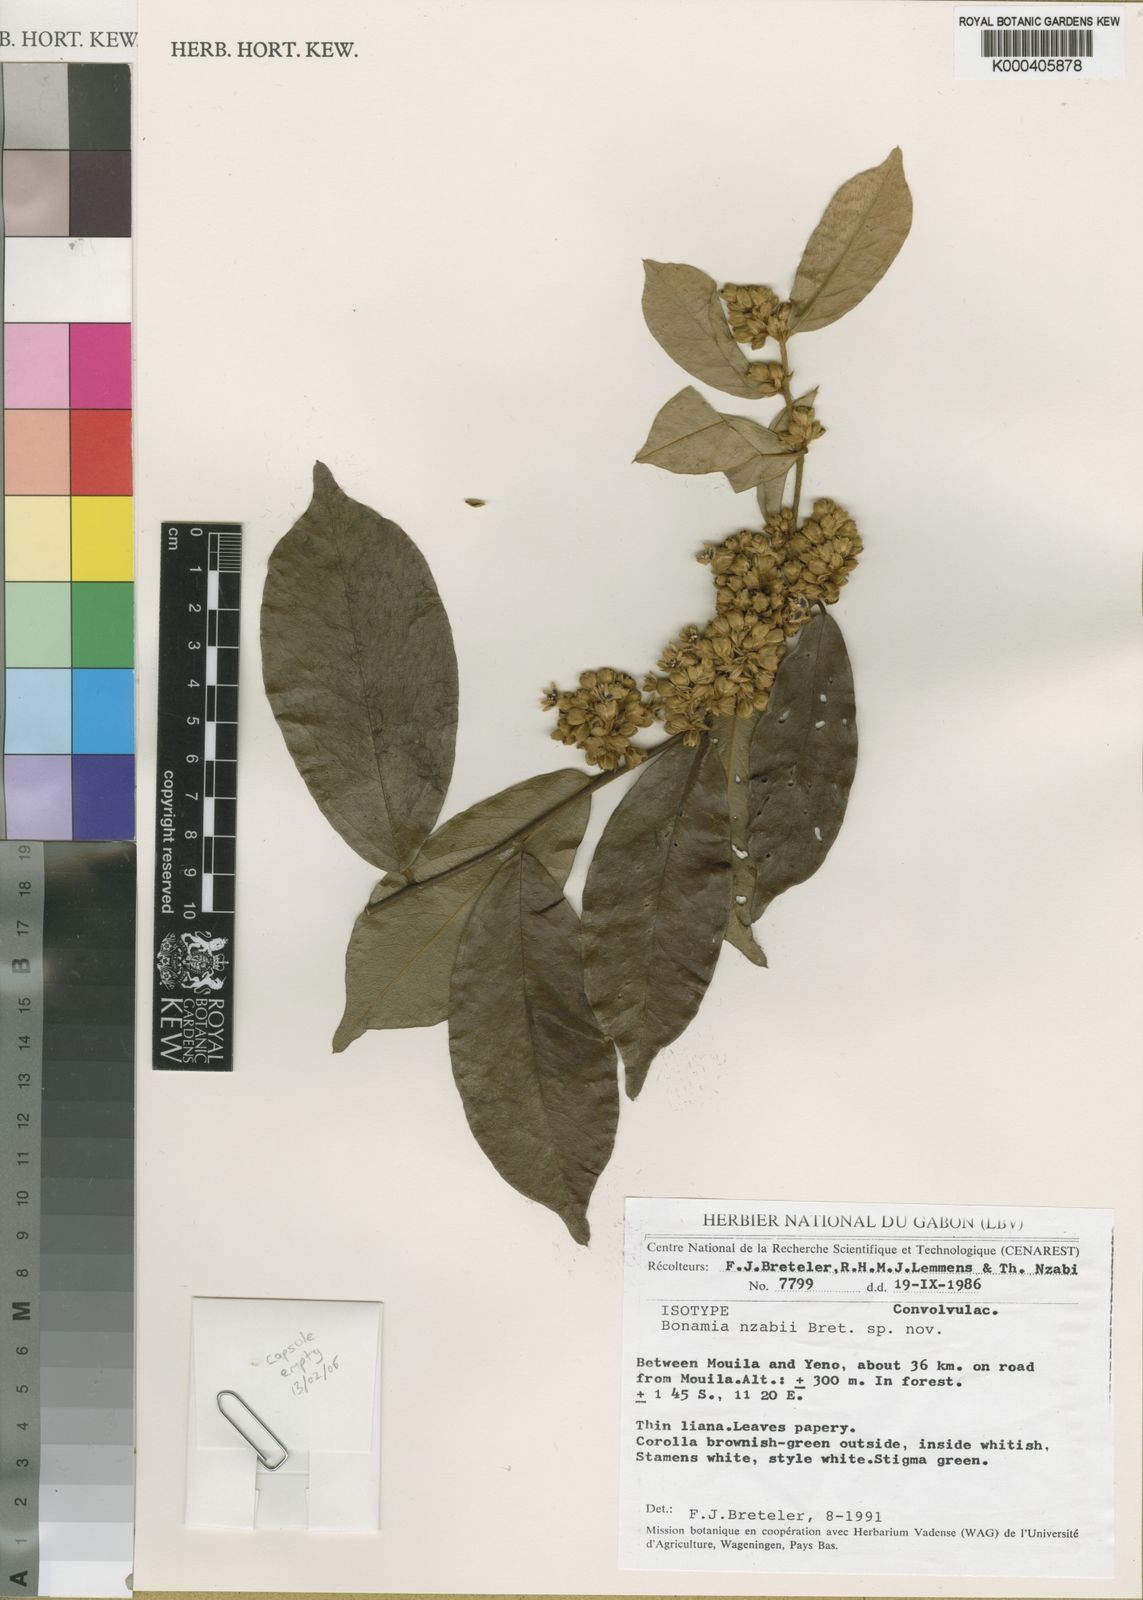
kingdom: Plantae
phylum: Tracheophyta
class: Magnoliopsida
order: Solanales
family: Convolvulaceae
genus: Bonamia
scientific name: Bonamia nzabii
